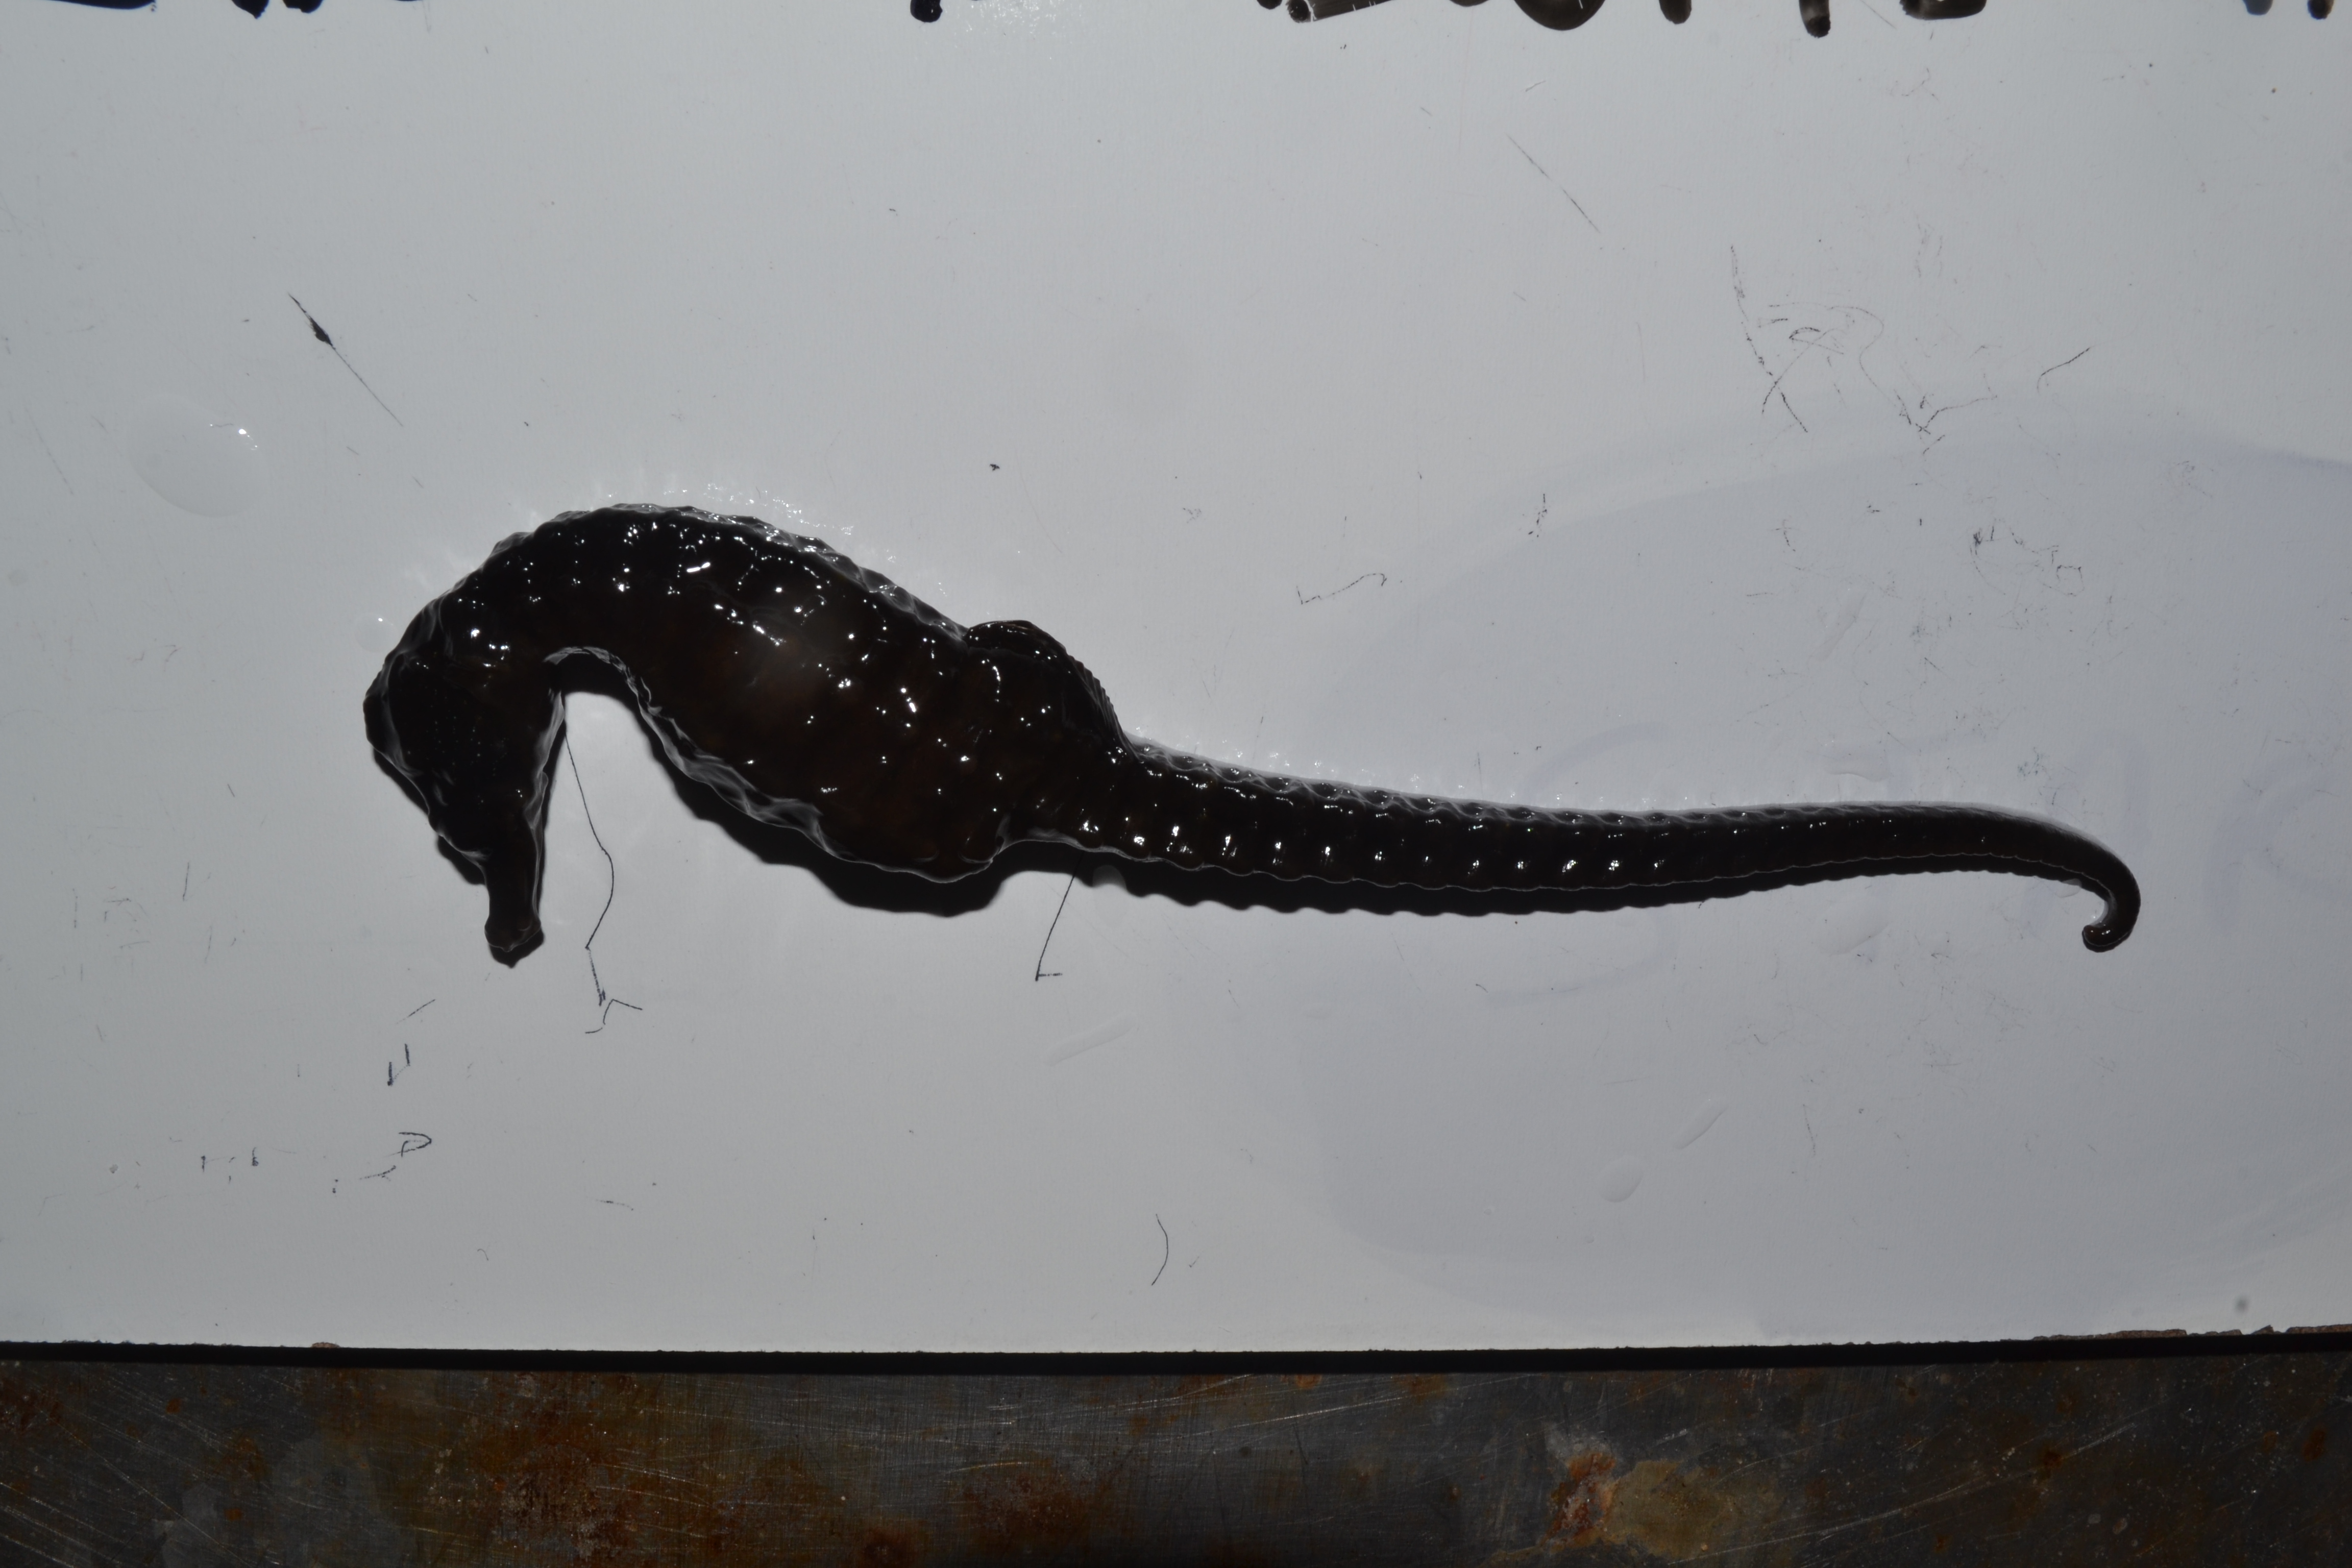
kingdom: Animalia
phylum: Chordata
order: Syngnathiformes
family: Syngnathidae
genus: Hippocampus
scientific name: Hippocampus capensis
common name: Cape seahorse
